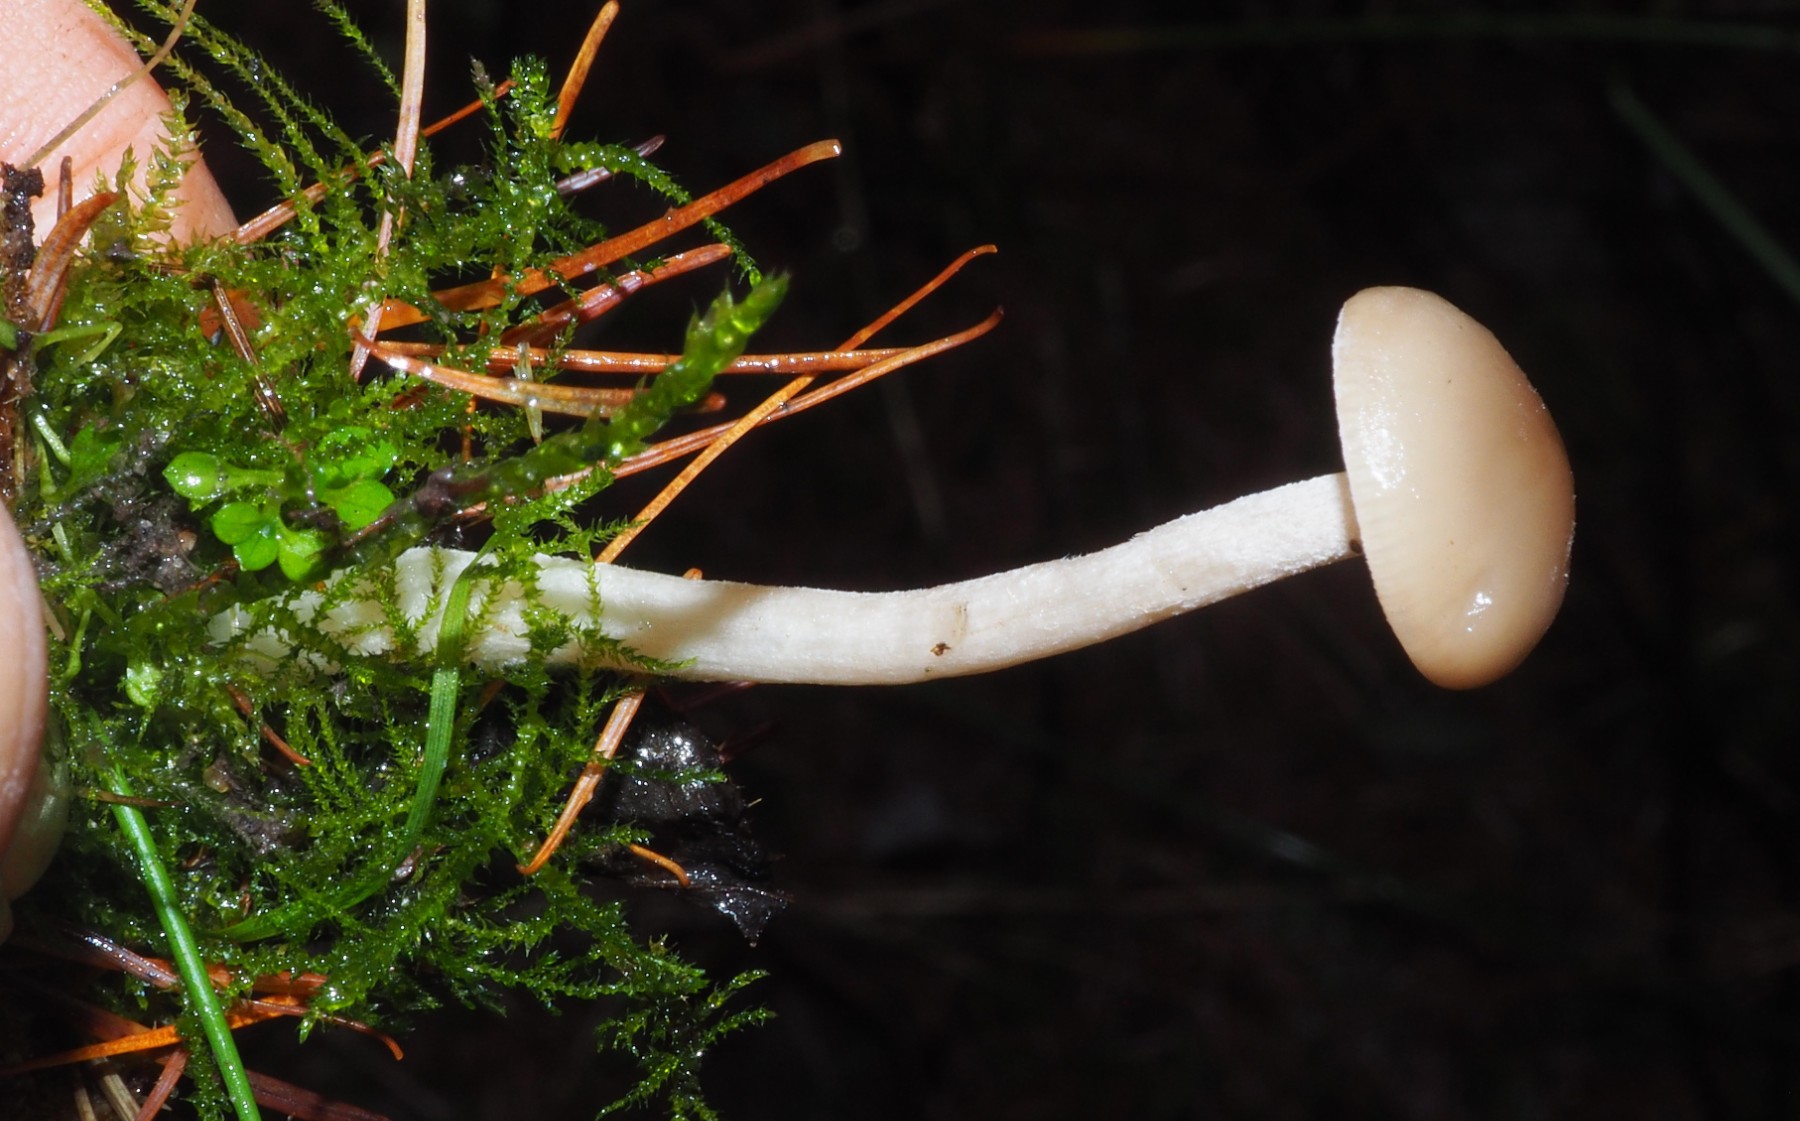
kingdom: Fungi
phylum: Basidiomycota
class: Agaricomycetes
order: Agaricales
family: Hygrophoraceae
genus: Hygrophorus
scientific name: Hygrophorus agathosmus
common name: vellugtende sneglehat
